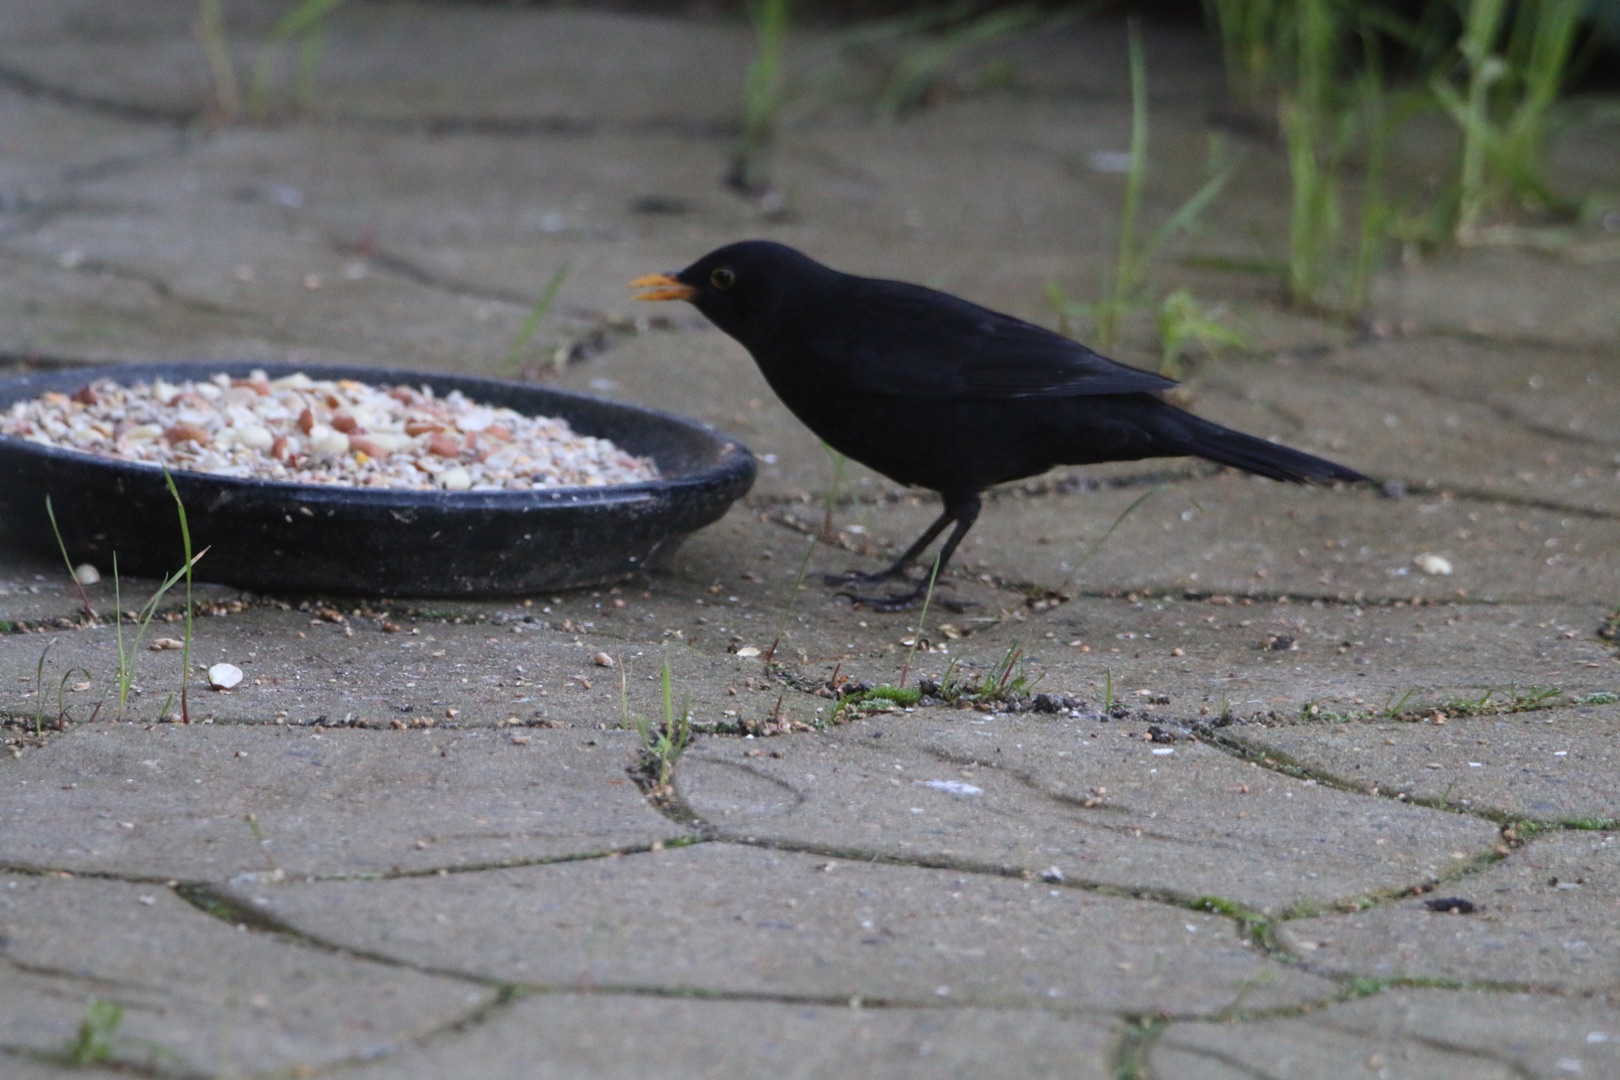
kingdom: Animalia
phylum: Chordata
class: Aves
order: Passeriformes
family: Turdidae
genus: Turdus
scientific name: Turdus merula
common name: Solsort
